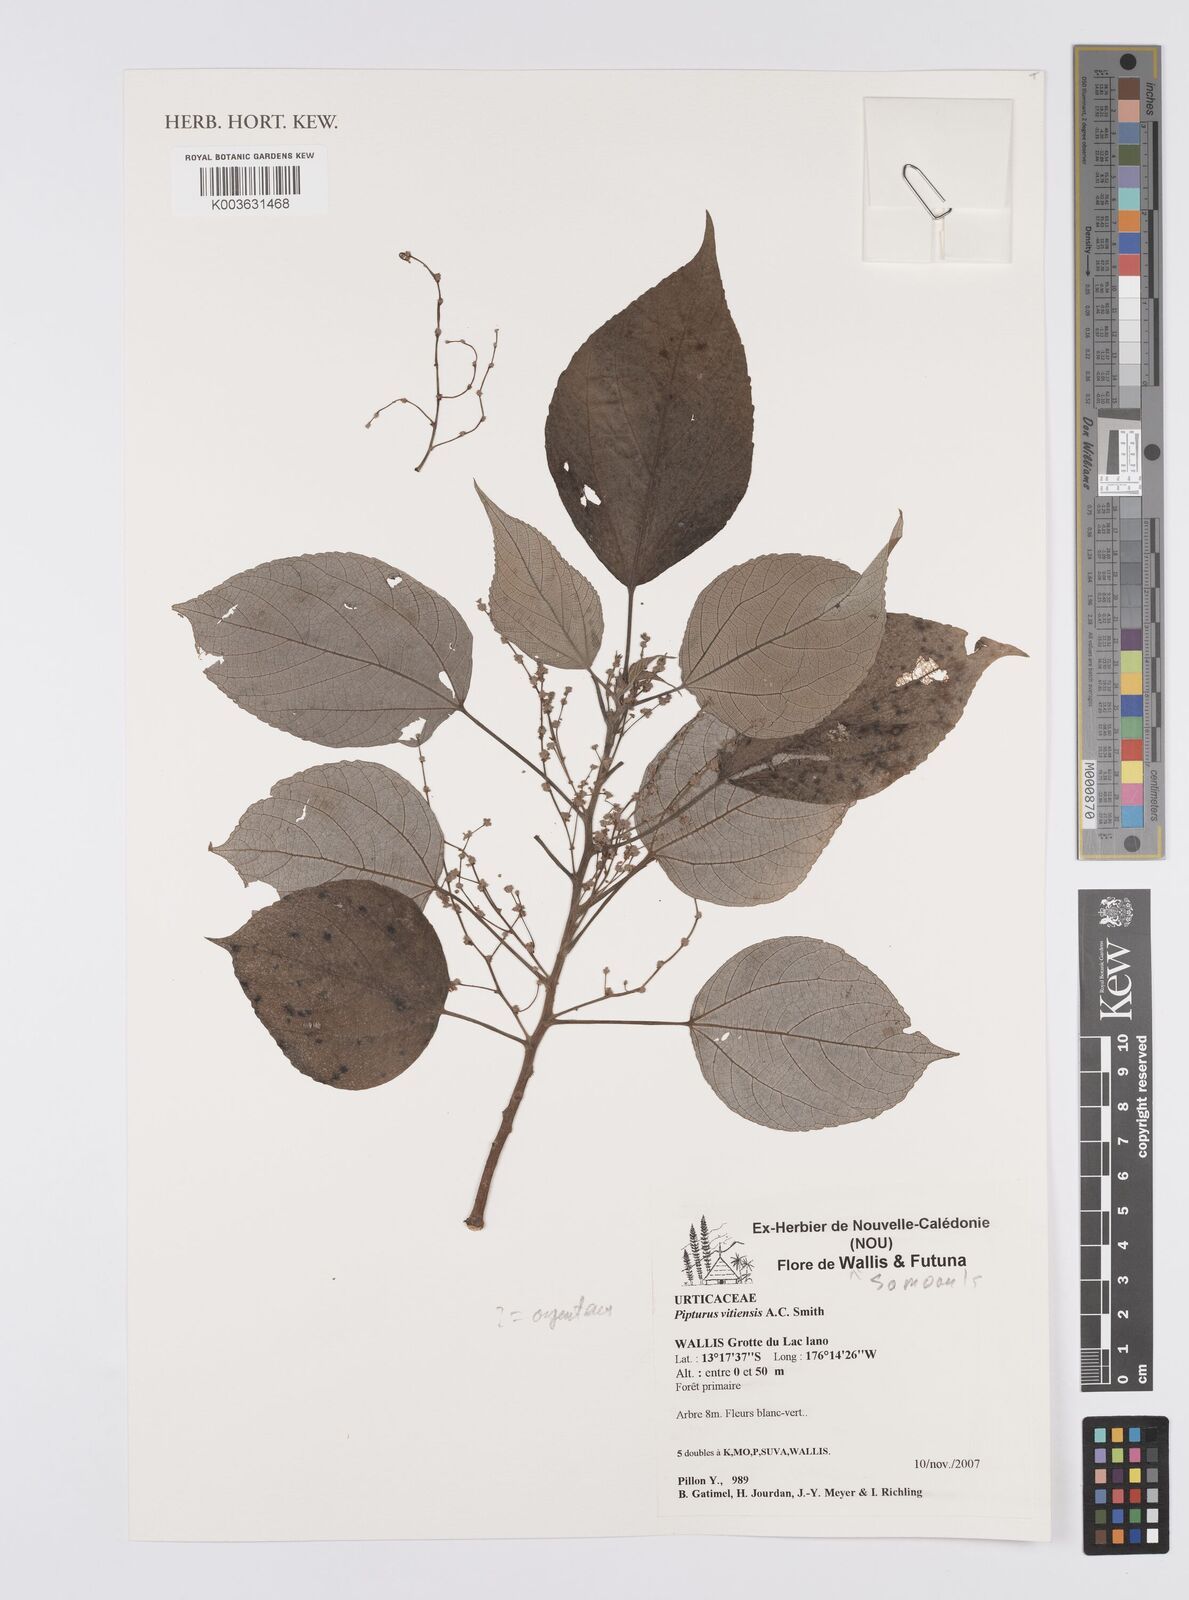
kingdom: Plantae
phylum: Tracheophyta
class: Magnoliopsida
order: Rosales
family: Urticaceae
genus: Pipturus
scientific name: Pipturus argenteus
